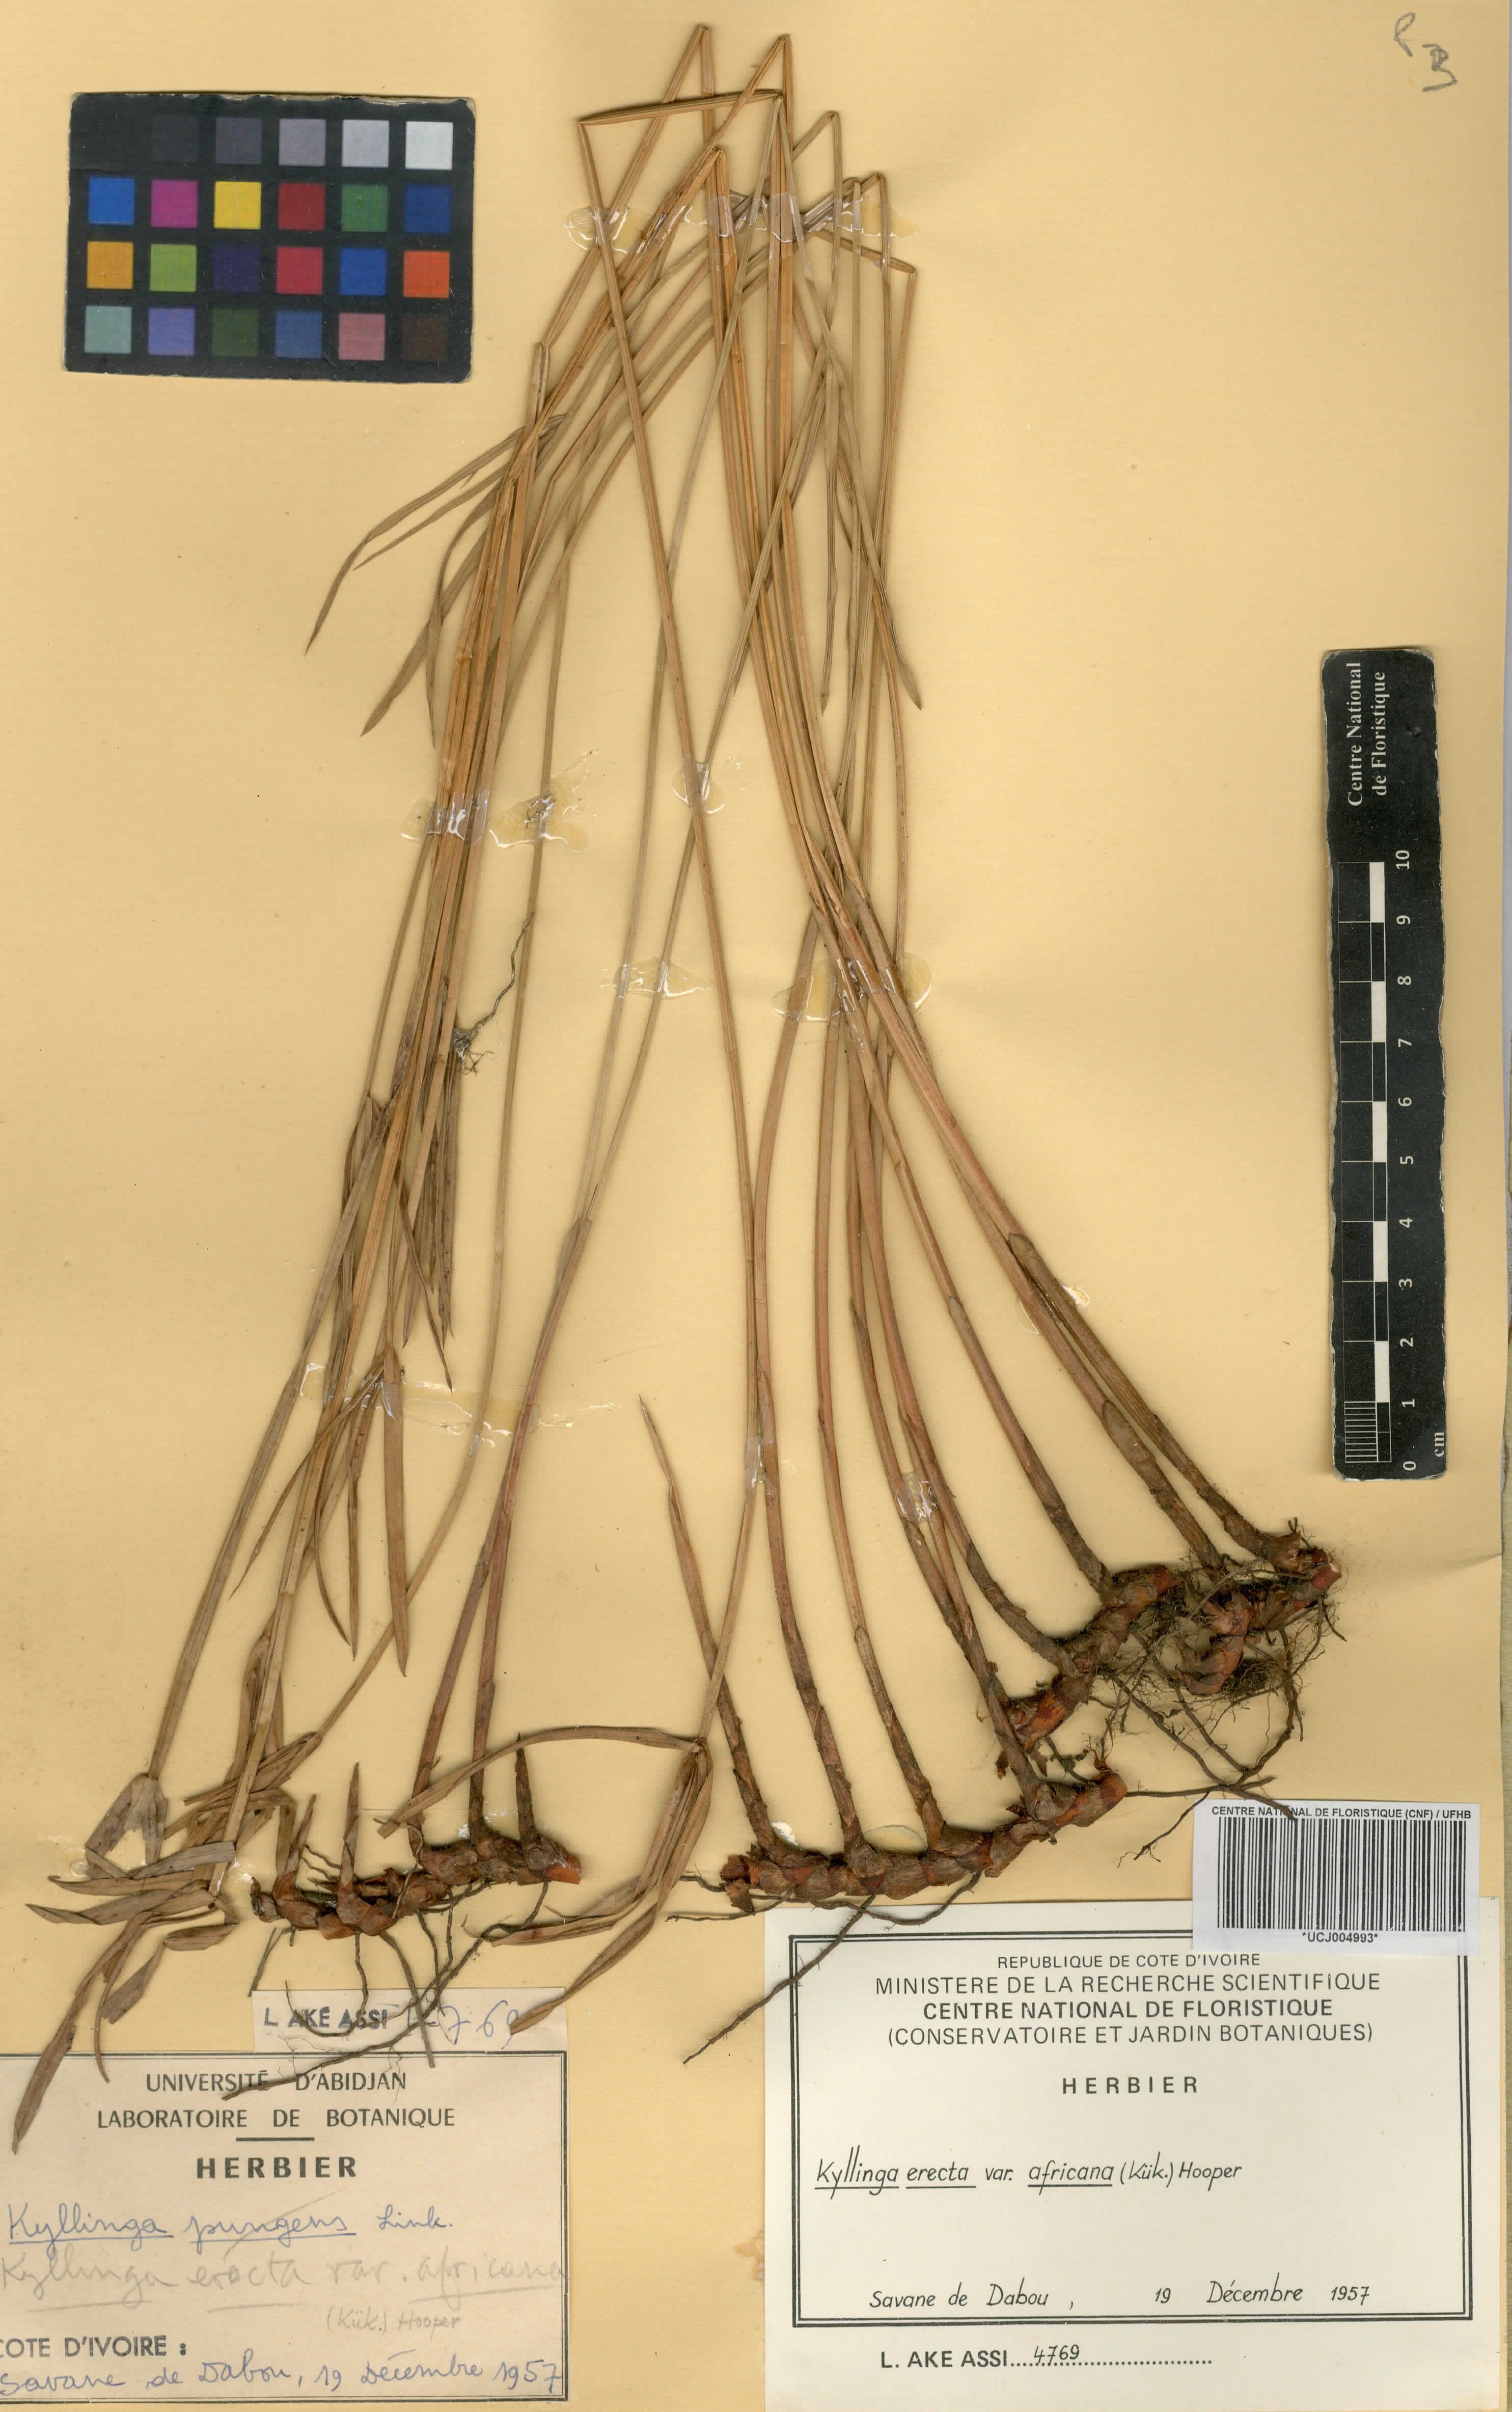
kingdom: Plantae
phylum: Tracheophyta
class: Liliopsida
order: Poales
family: Cyperaceae
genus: Cyperus
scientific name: Cyperus obtusatus
